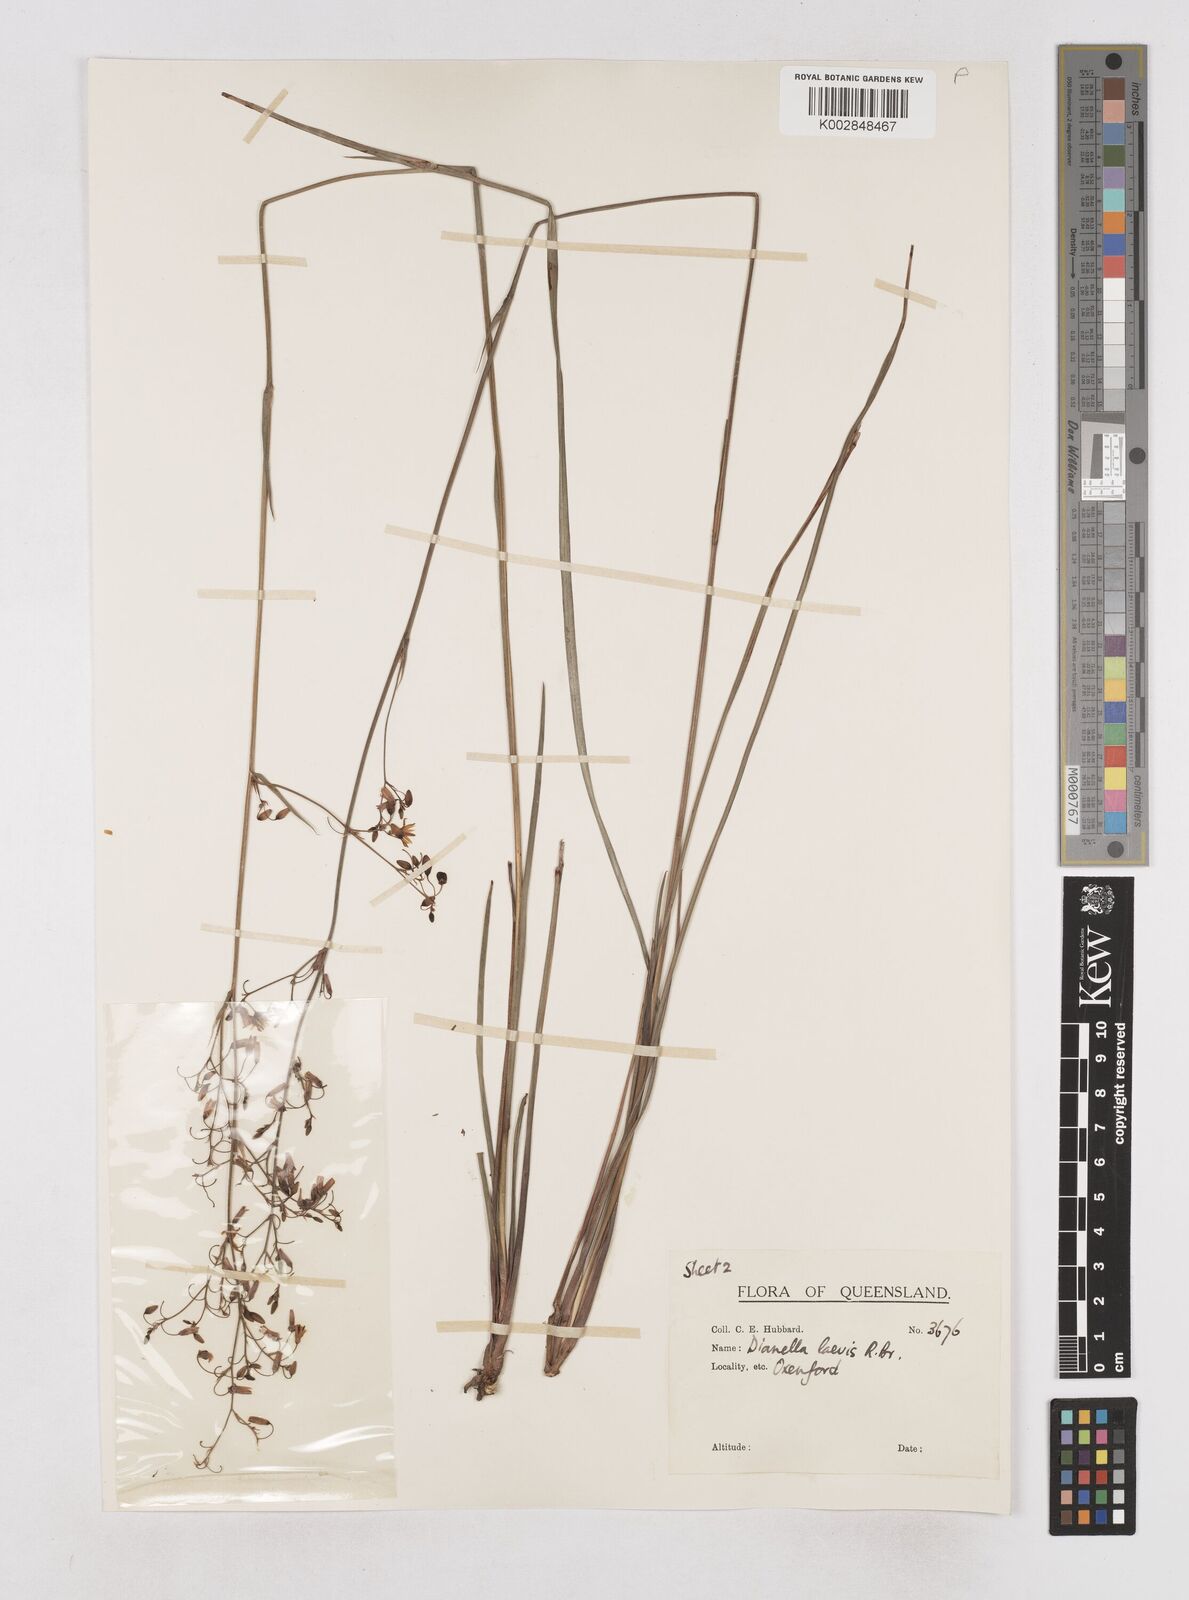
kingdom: Plantae
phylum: Tracheophyta
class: Liliopsida
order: Asparagales
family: Asphodelaceae
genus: Dianella
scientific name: Dianella longifolia
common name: Blue flax-lily
